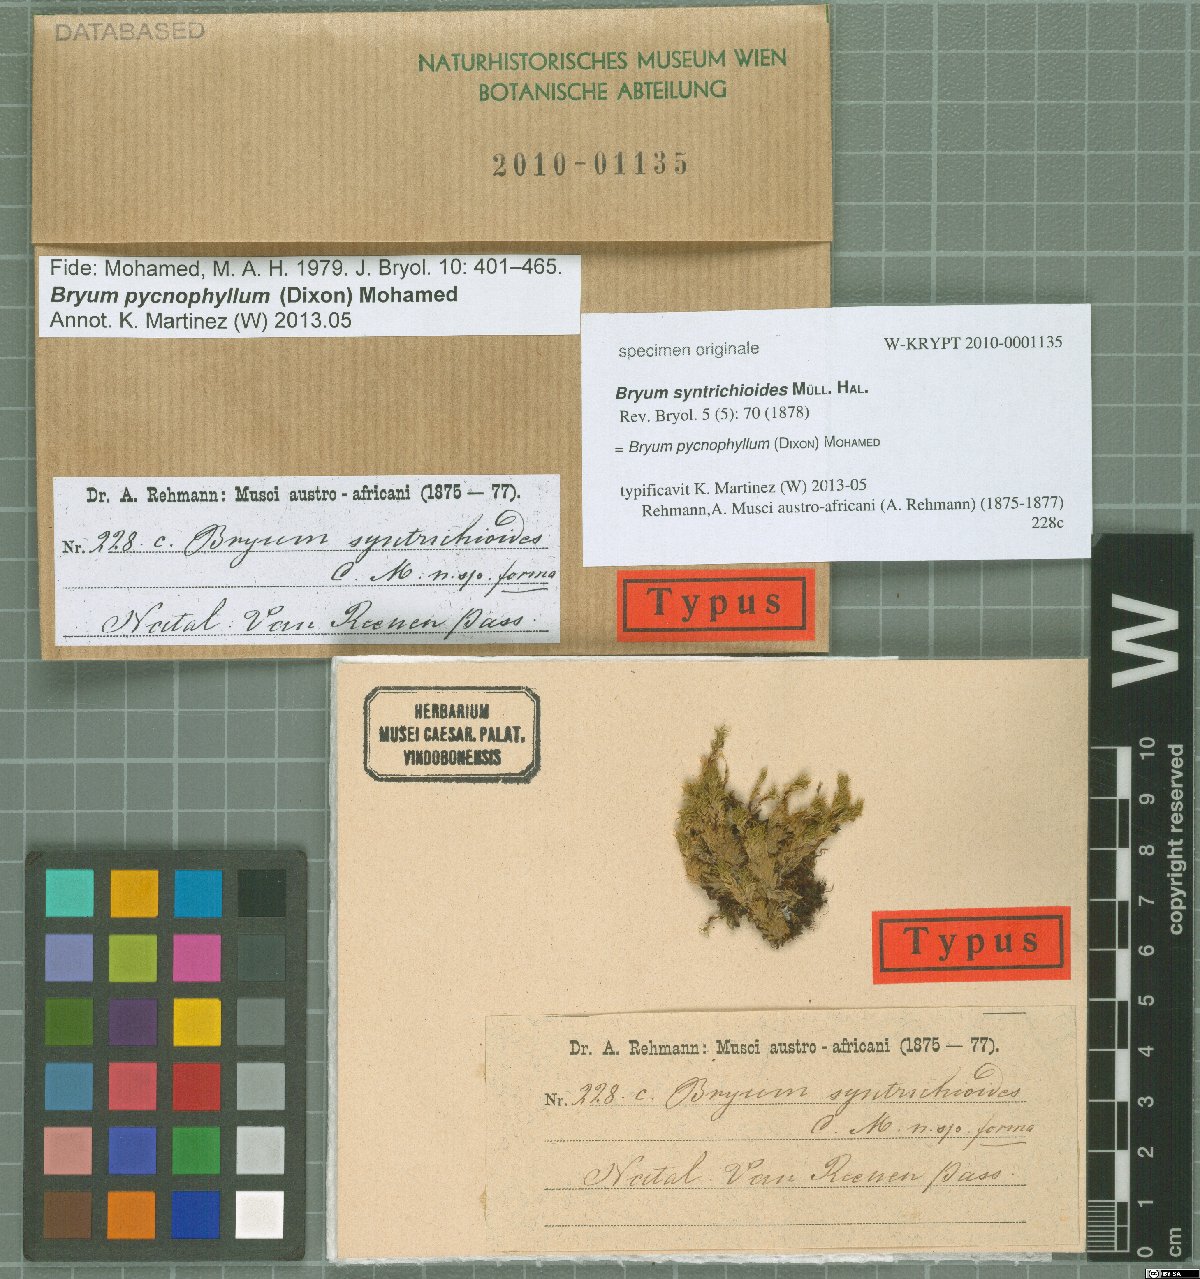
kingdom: Plantae
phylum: Bryophyta
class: Bryopsida
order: Bryales
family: Bryaceae
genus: Rosulabryum
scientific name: Rosulabryum billarderii
